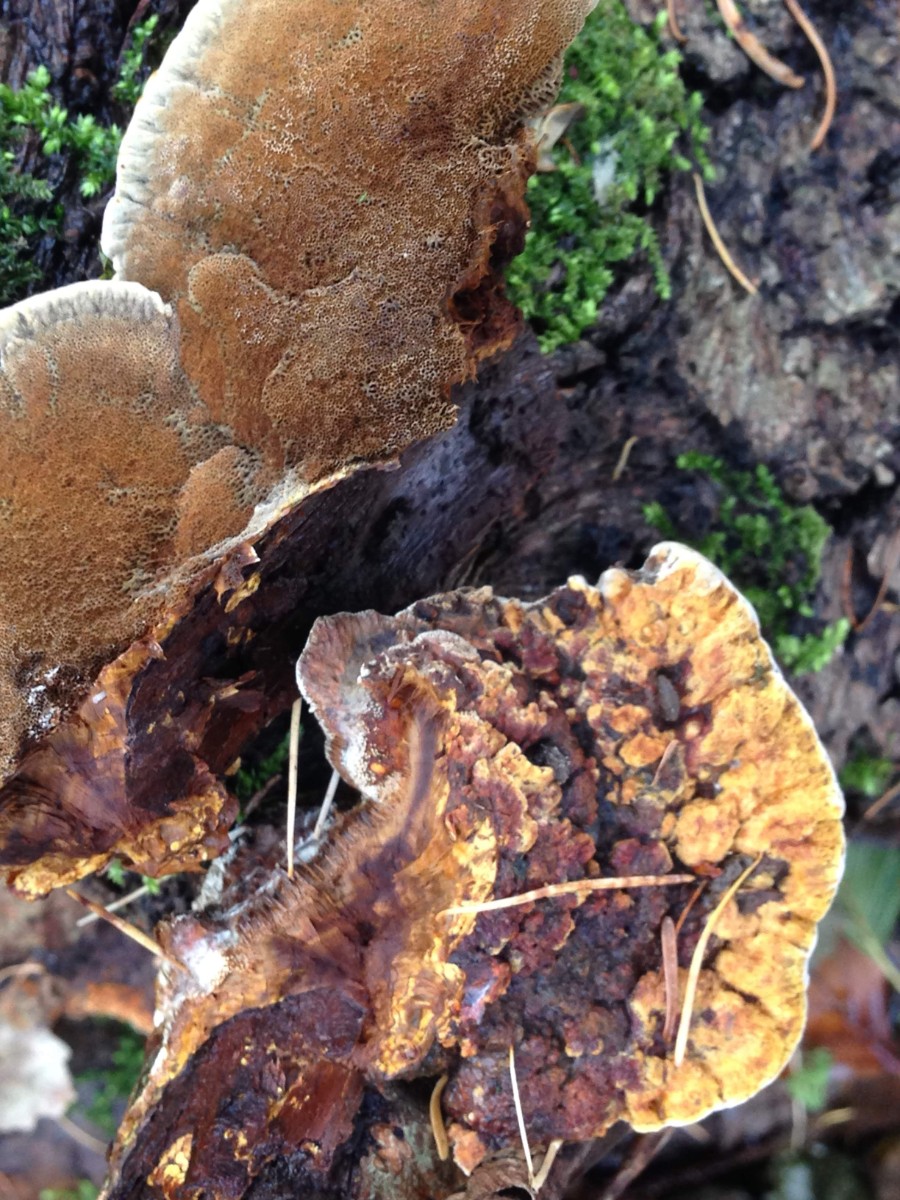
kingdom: Fungi
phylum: Basidiomycota
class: Agaricomycetes
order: Hymenochaetales
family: Hymenochaetaceae
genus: Xanthoporia
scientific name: Xanthoporia radiata
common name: elle-spejlporesvamp
